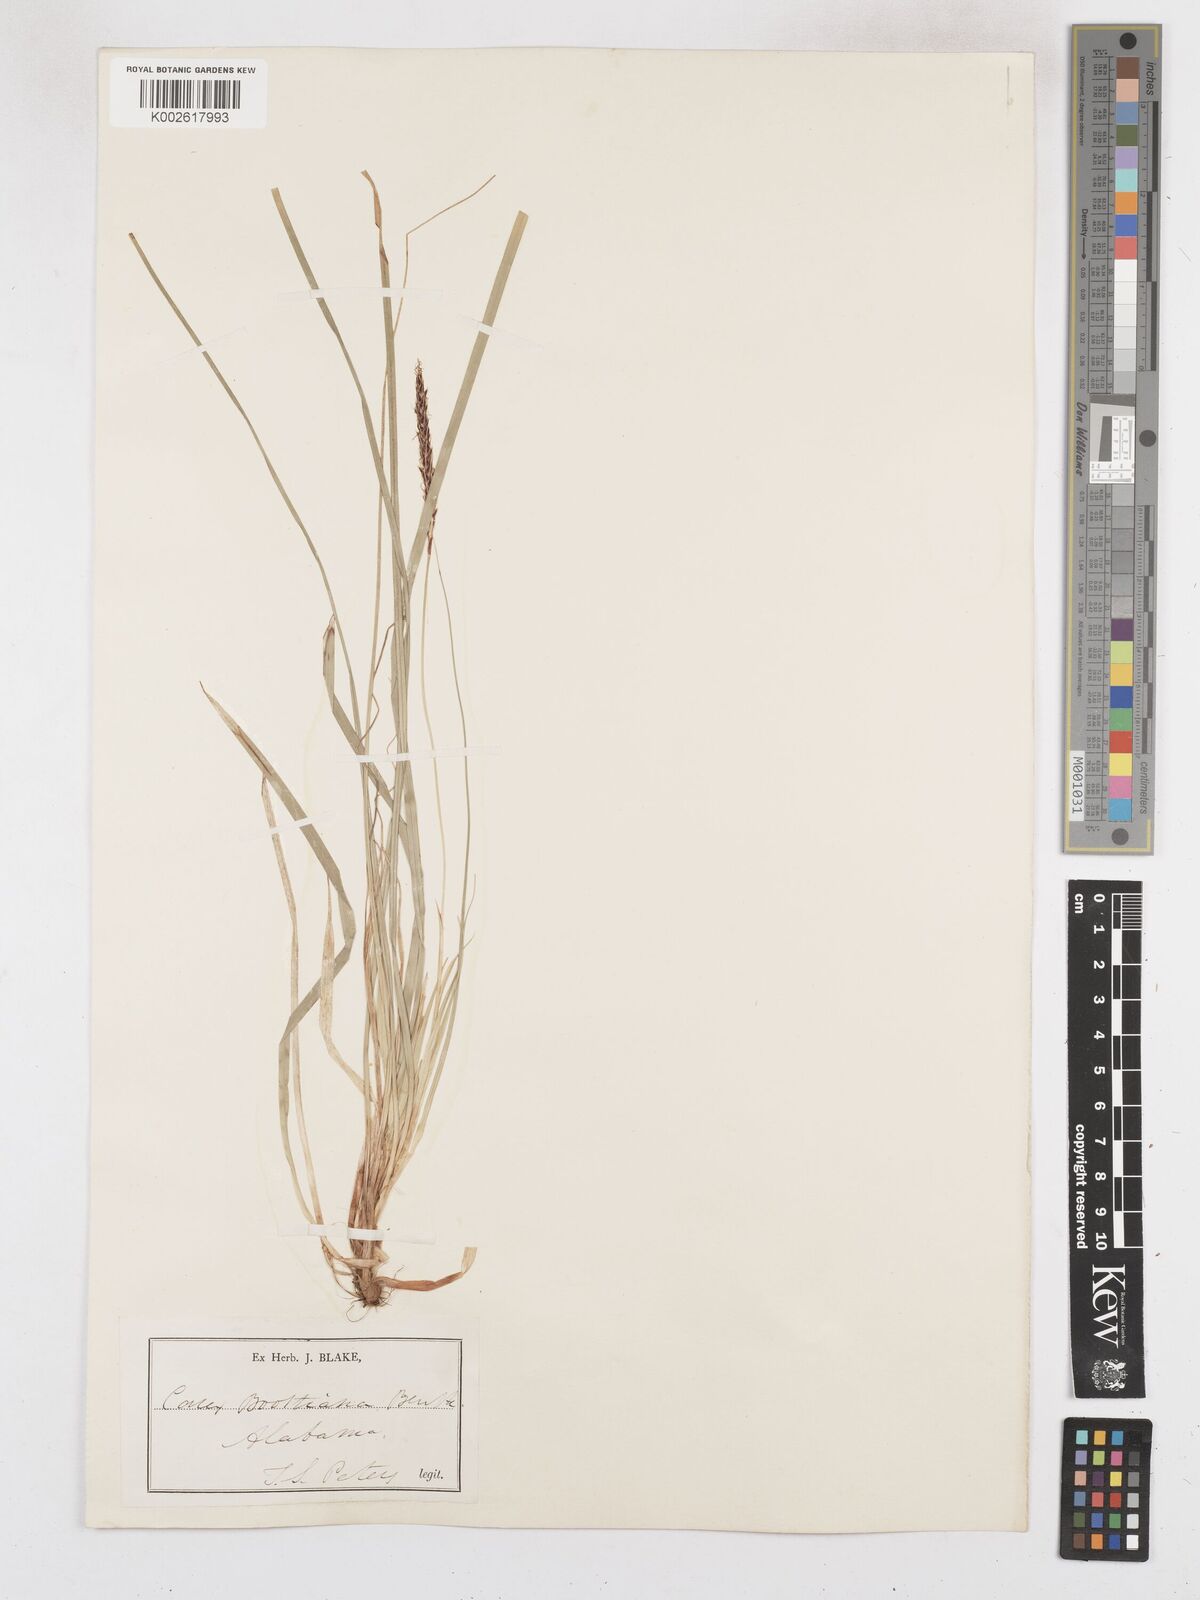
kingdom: Plantae
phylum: Tracheophyta
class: Liliopsida
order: Poales
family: Cyperaceae
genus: Carex
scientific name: Carex picta
